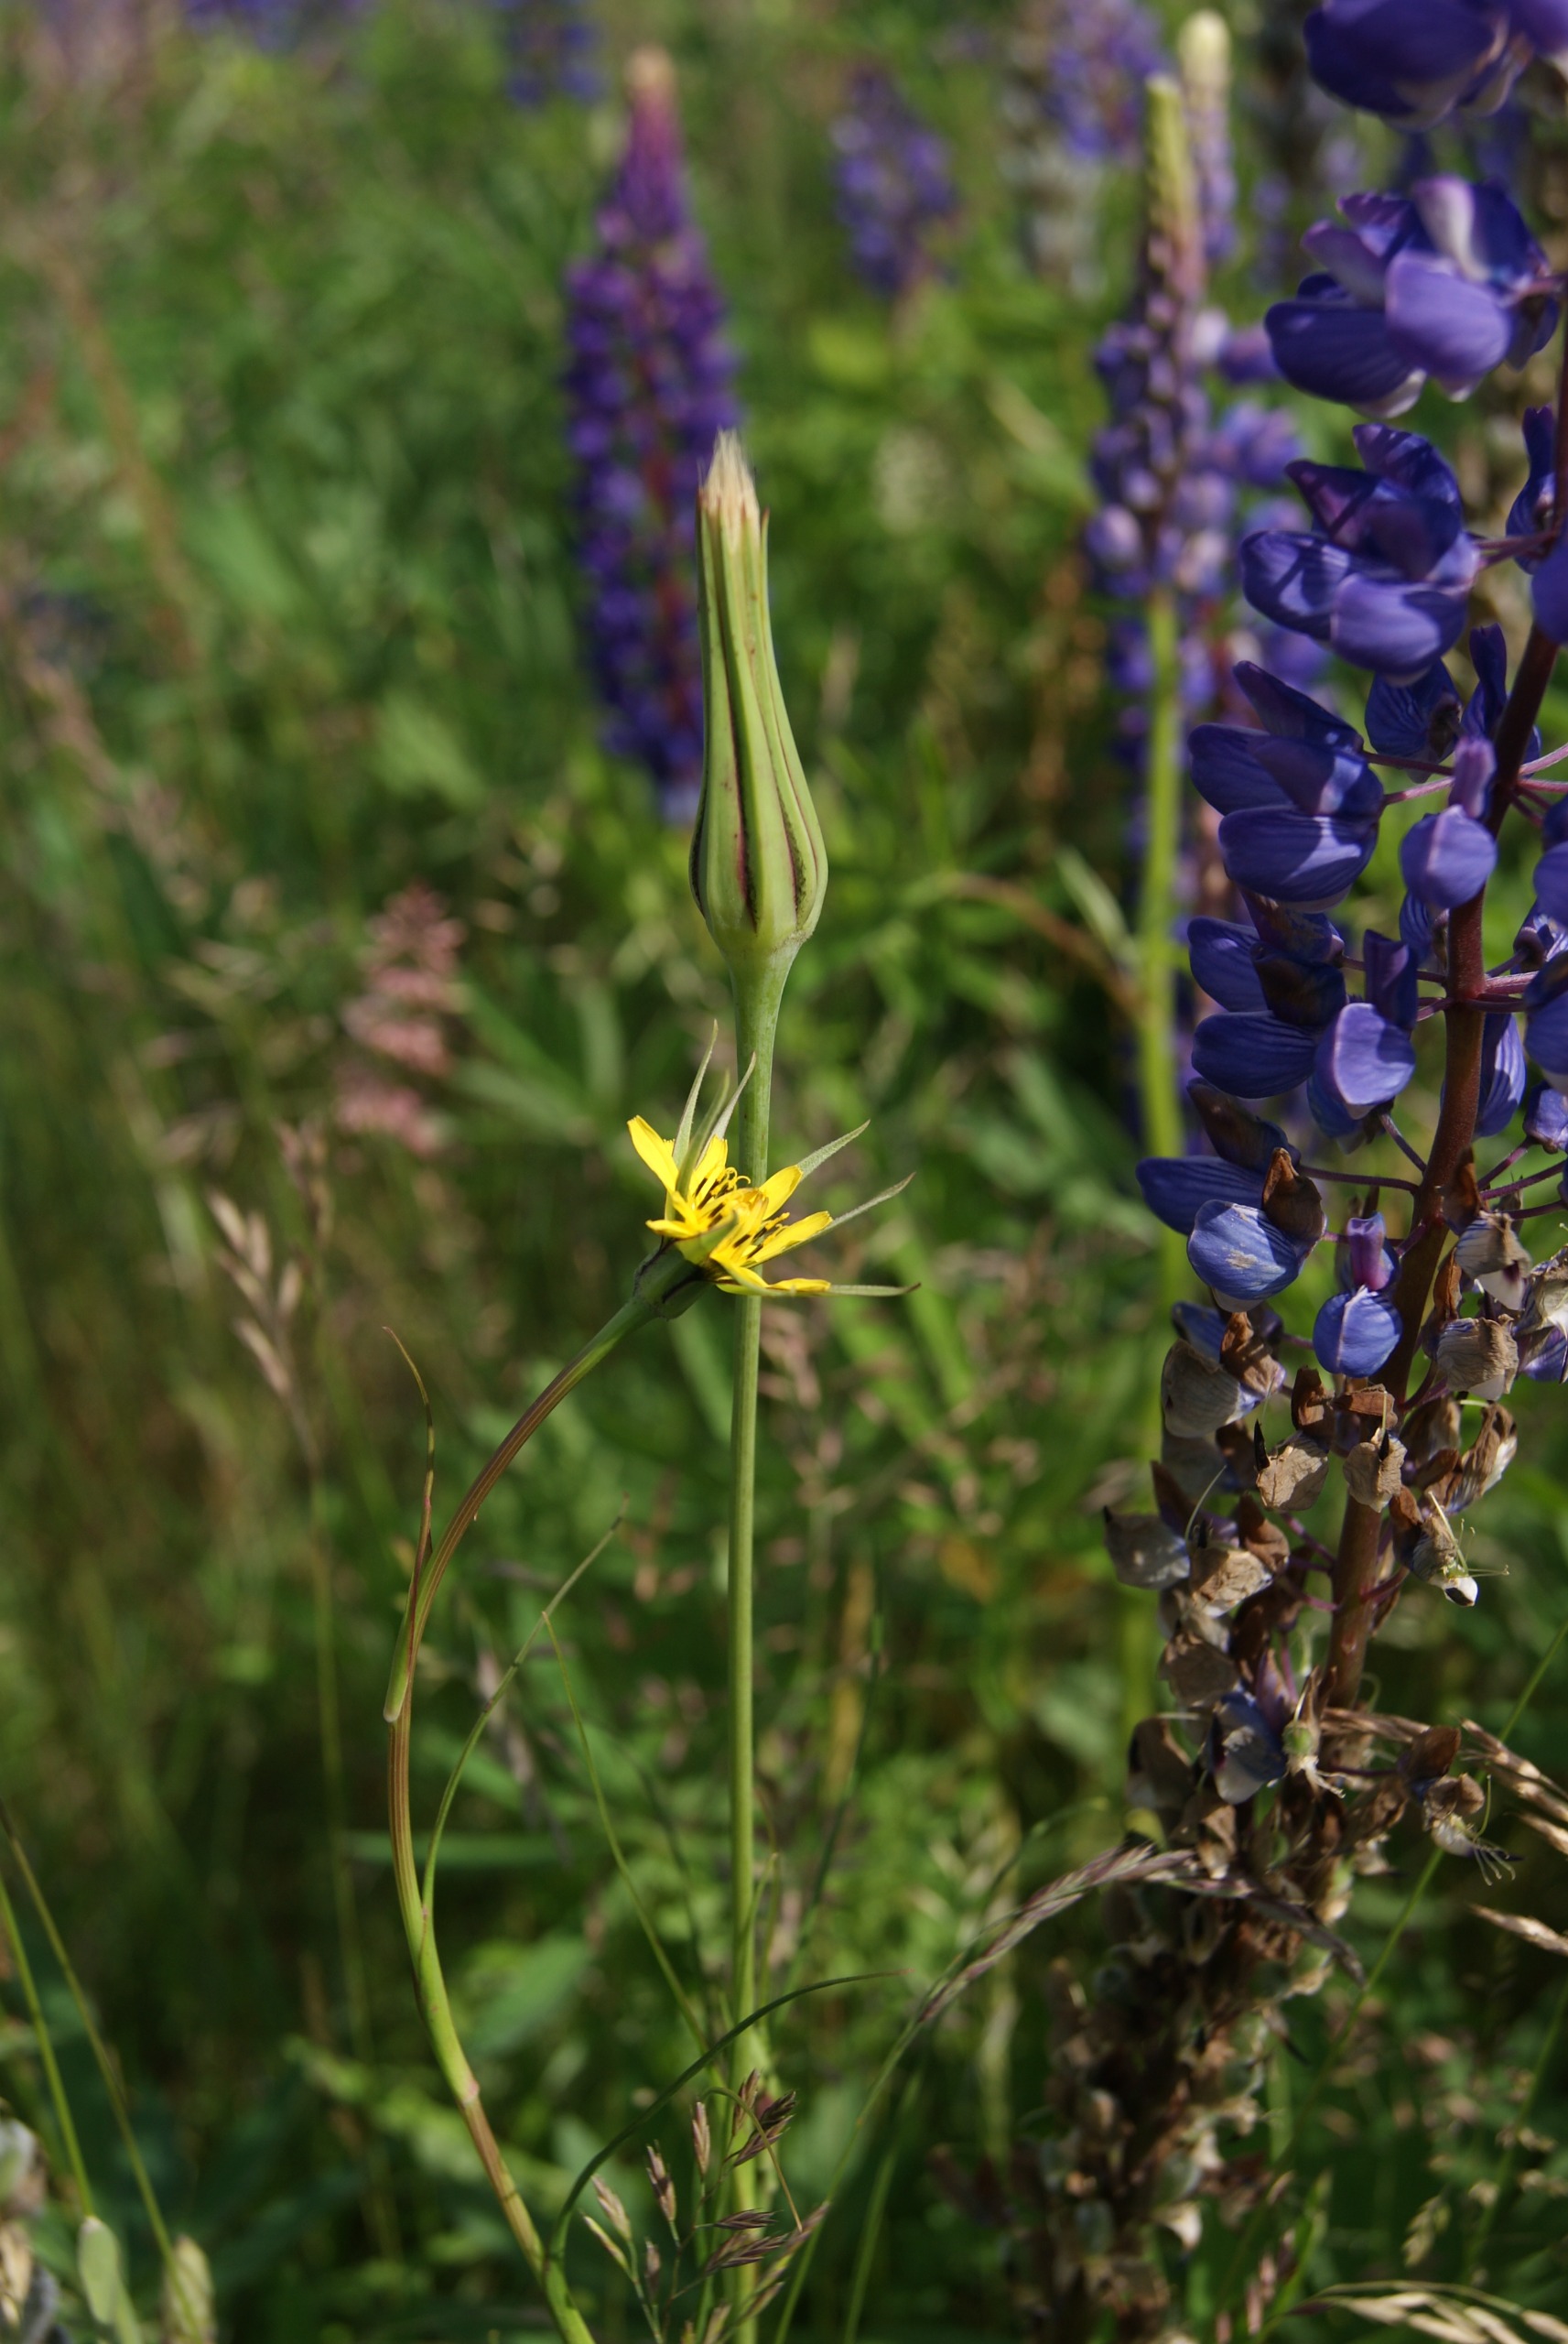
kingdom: Plantae
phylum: Tracheophyta
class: Magnoliopsida
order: Asterales
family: Asteraceae
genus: Tragopogon
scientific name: Tragopogon minor
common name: Småkronet gedeskæg
